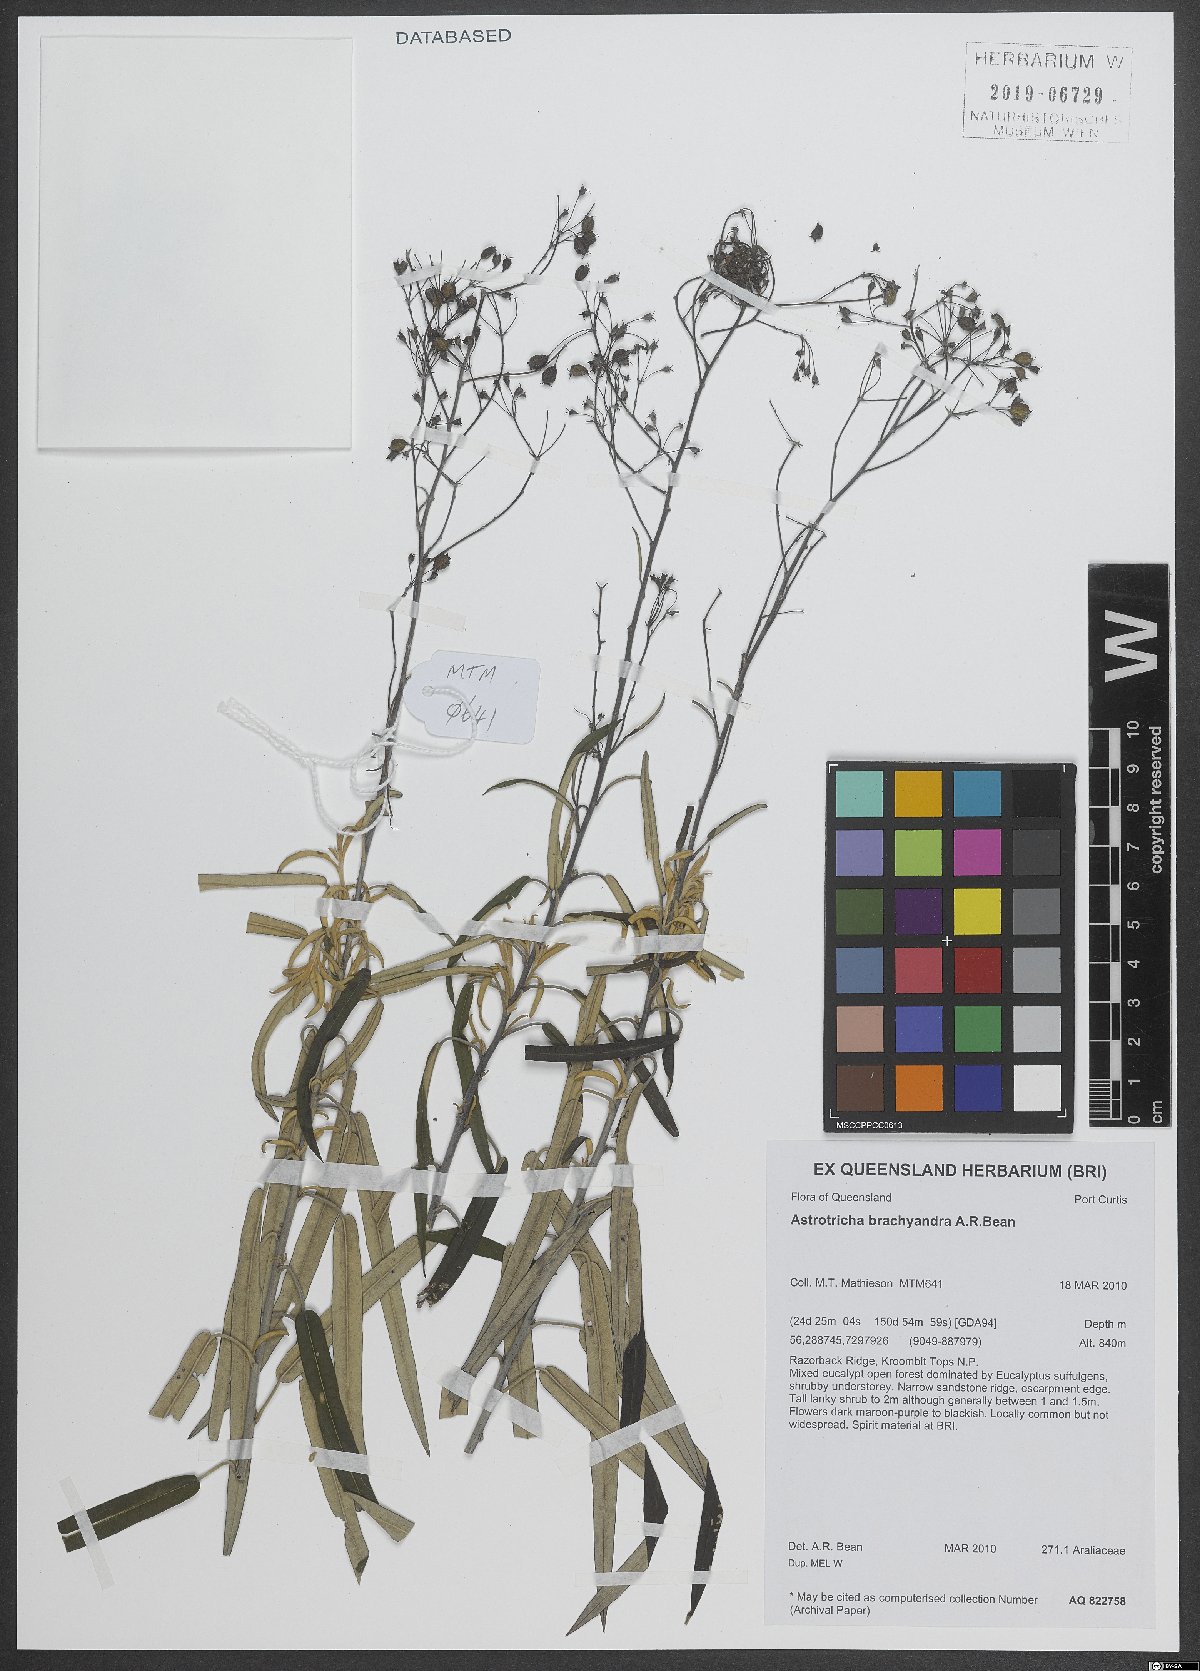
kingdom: Plantae
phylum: Tracheophyta
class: Magnoliopsida
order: Apiales
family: Araliaceae
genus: Astrotricha
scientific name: Astrotricha brachyandra
